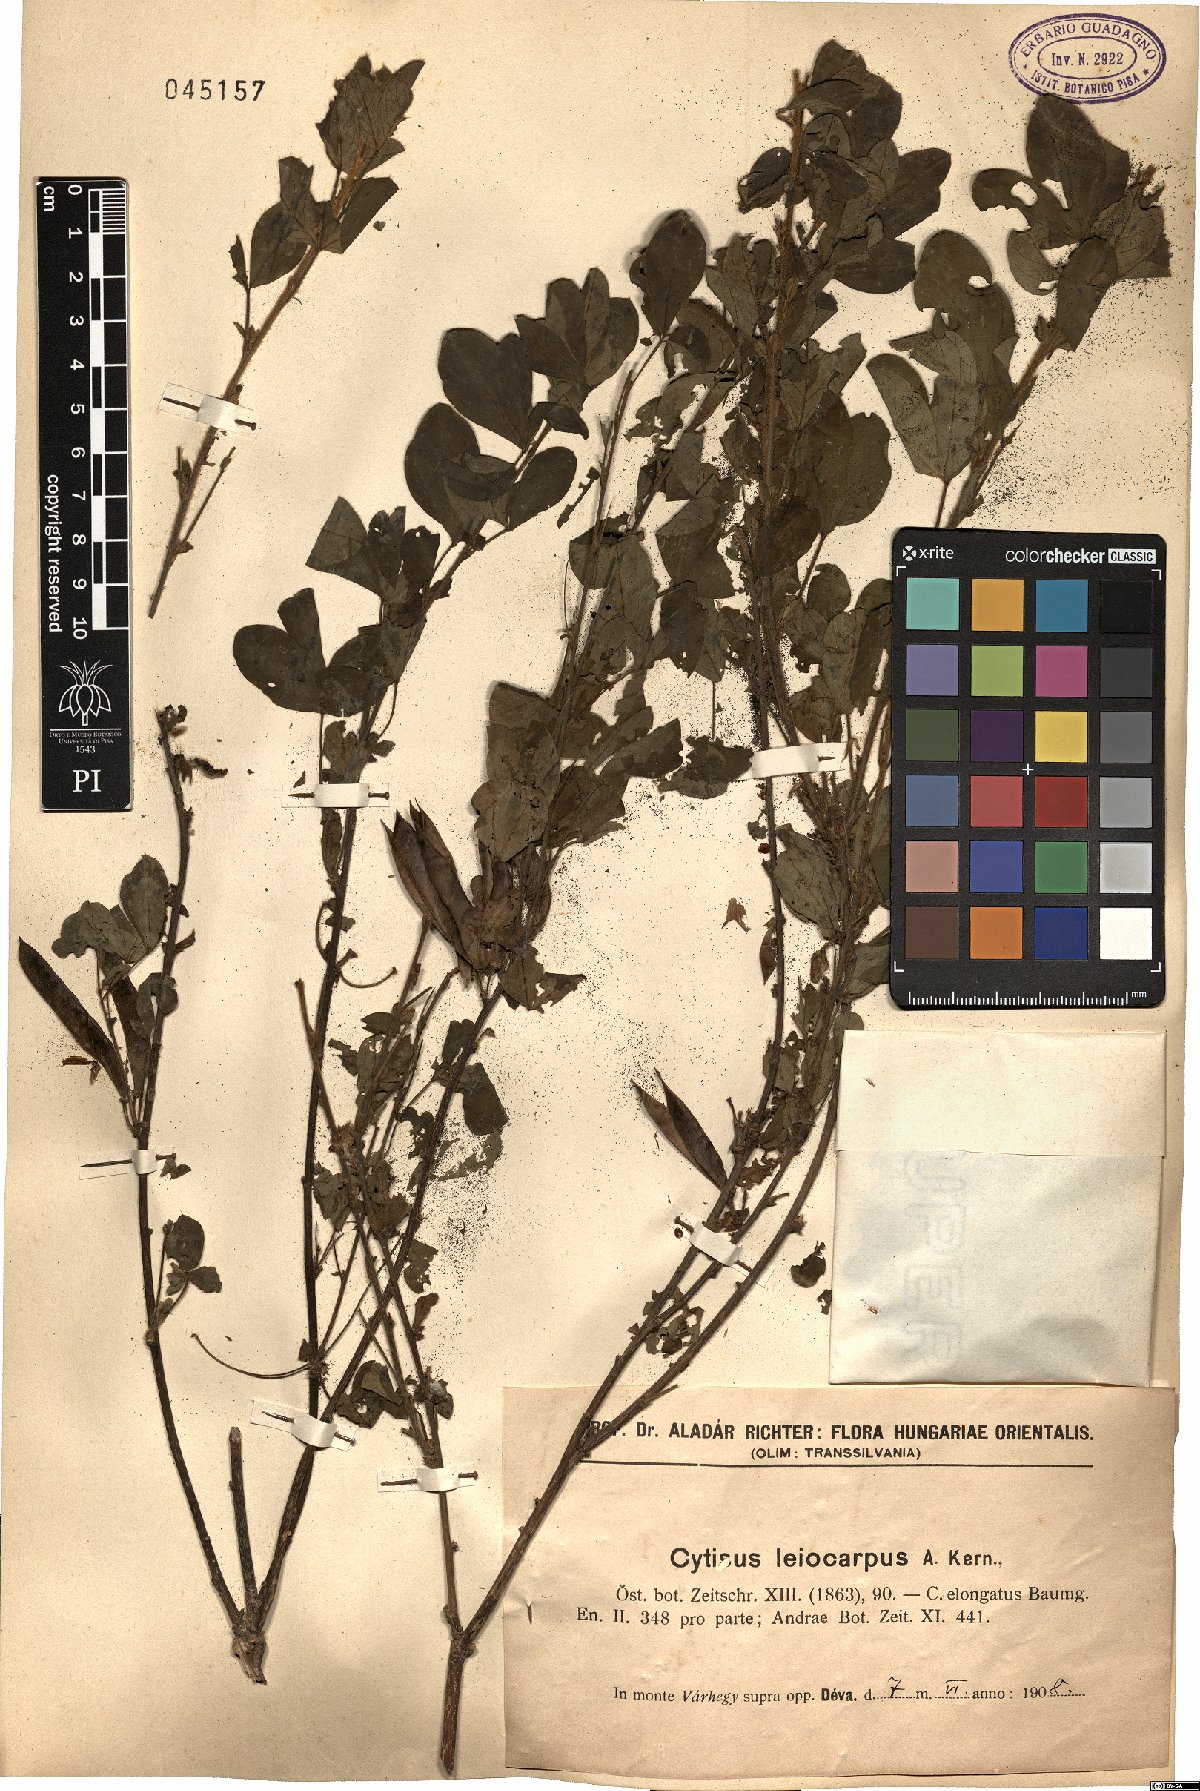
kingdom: Plantae
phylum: Tracheophyta
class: Magnoliopsida
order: Fabales
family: Fabaceae
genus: Chamaecytisus
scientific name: Chamaecytisus leiocarpus
